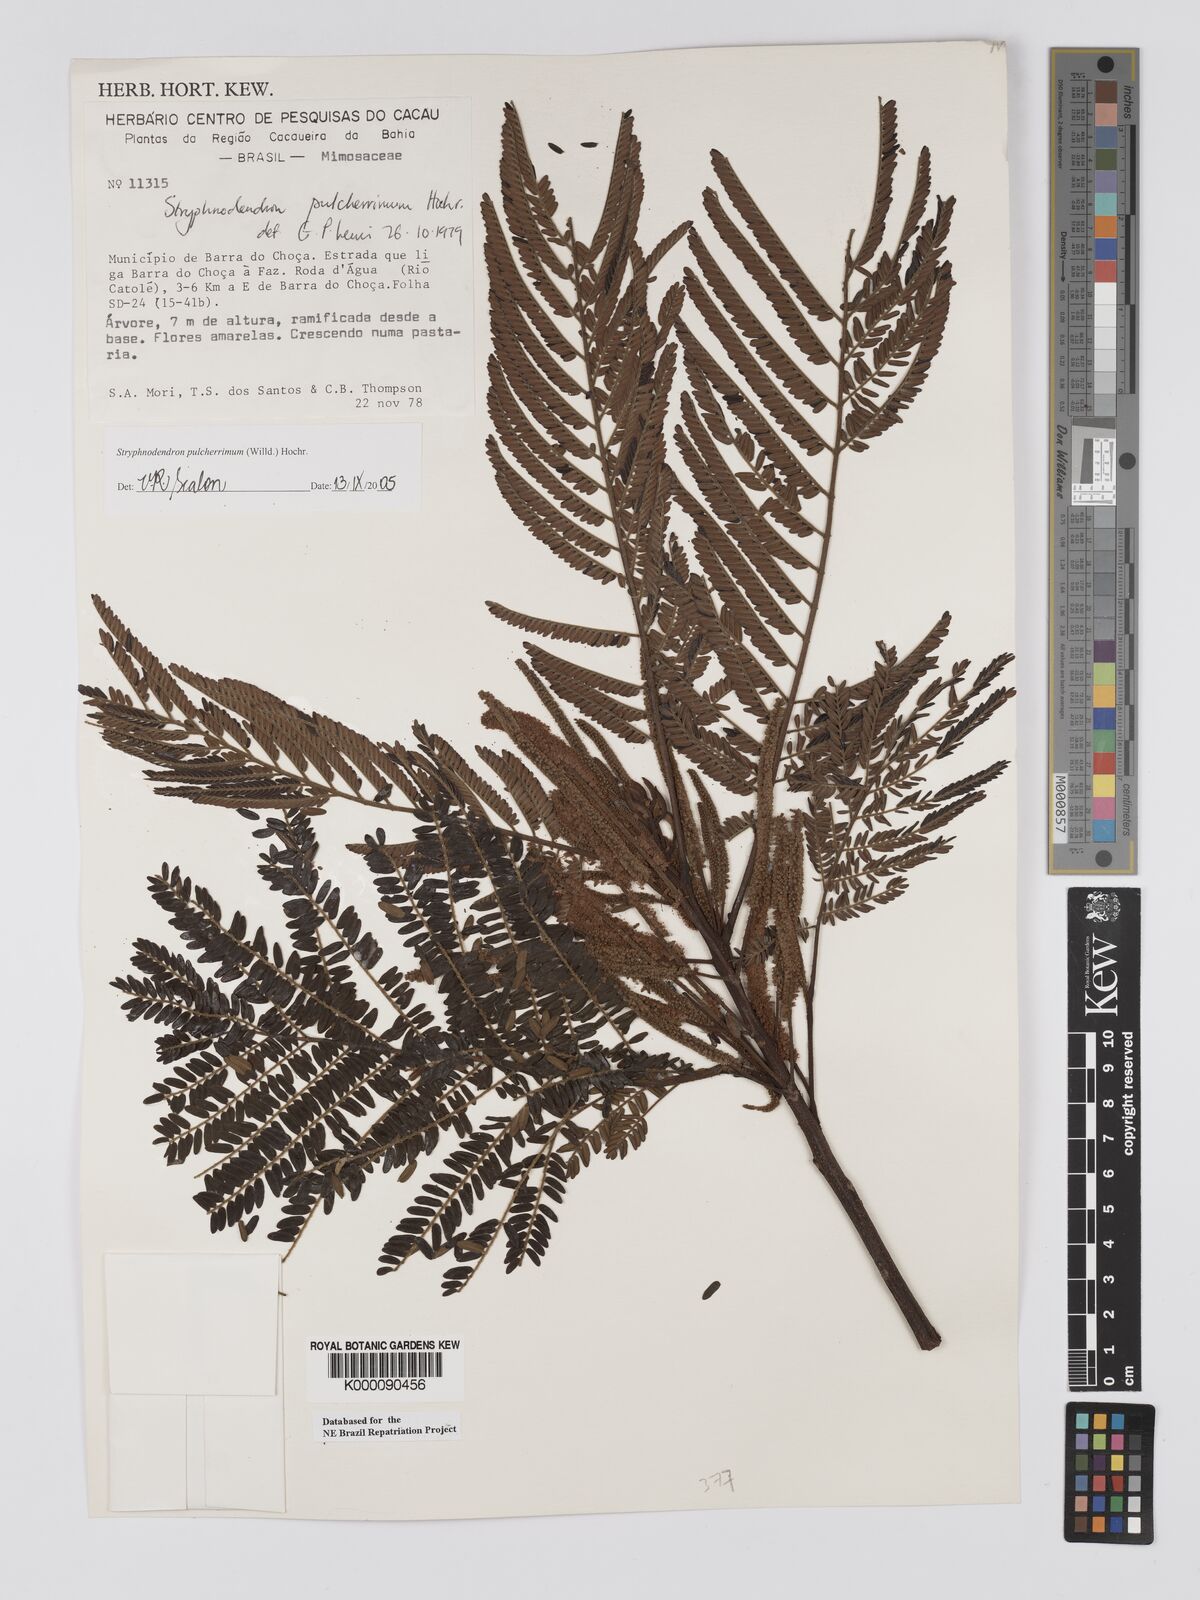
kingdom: Plantae
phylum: Tracheophyta
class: Magnoliopsida
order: Fabales
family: Fabaceae
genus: Stryphnodendron
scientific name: Stryphnodendron pulcherrimum
